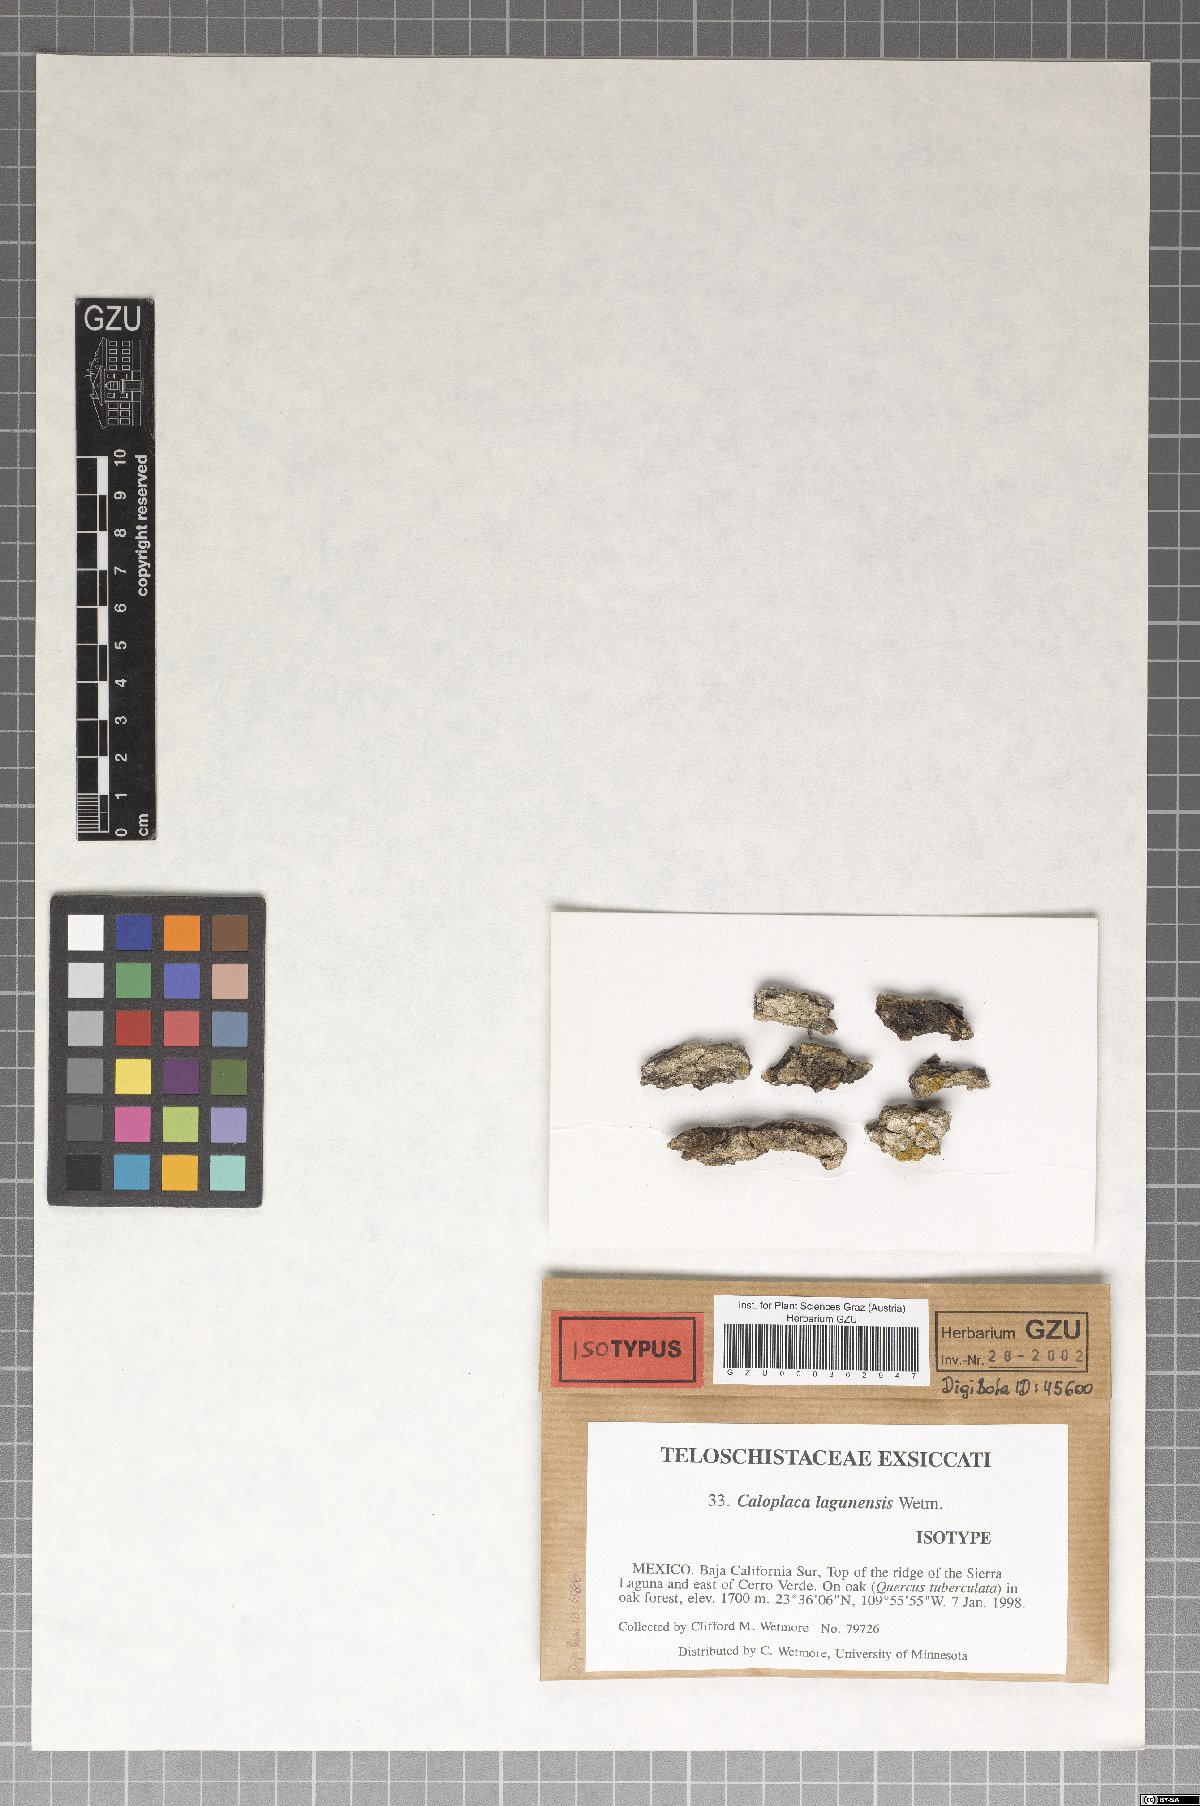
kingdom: Fungi
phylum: Ascomycota
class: Lecanoromycetes
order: Teloschistales
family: Teloschistaceae
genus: Caloplaca
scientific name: Caloplaca lagunensis
